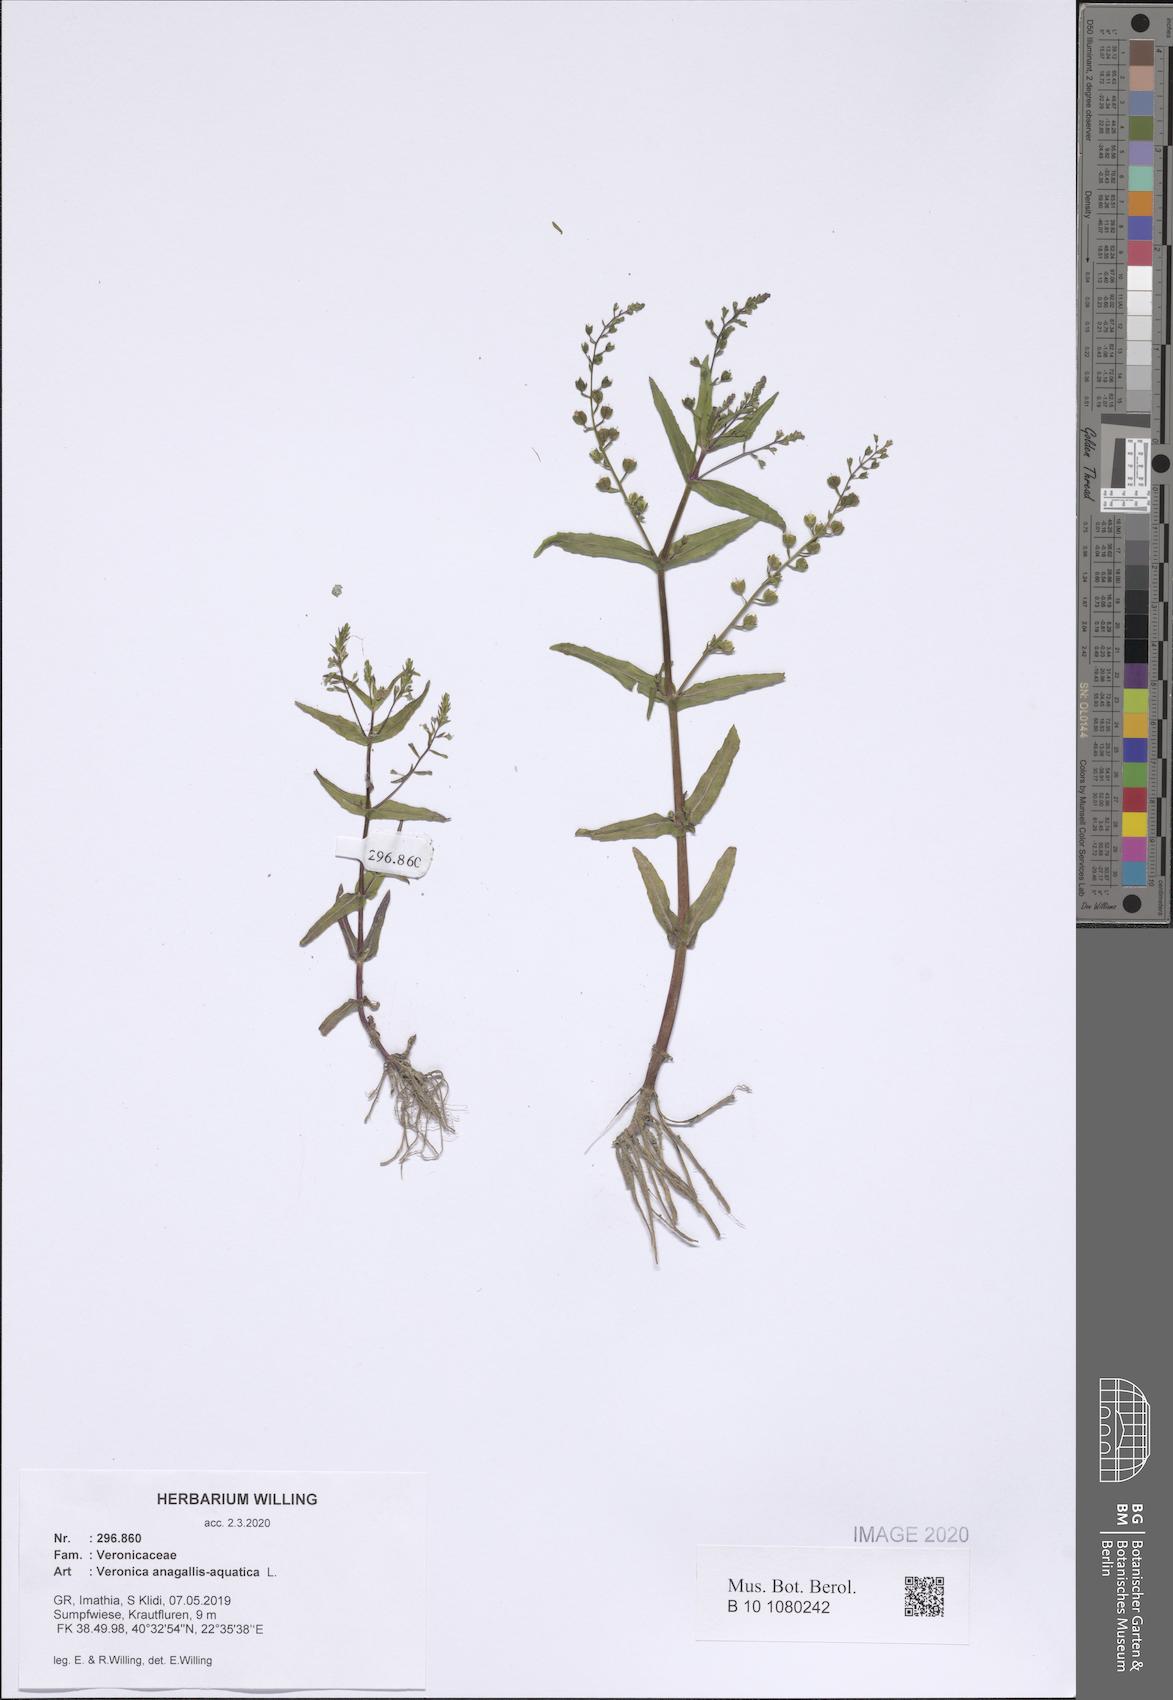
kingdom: Plantae
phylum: Tracheophyta
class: Magnoliopsida
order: Lamiales
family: Plantaginaceae
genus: Veronica
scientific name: Veronica anagallis-aquatica
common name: Water speedwell
